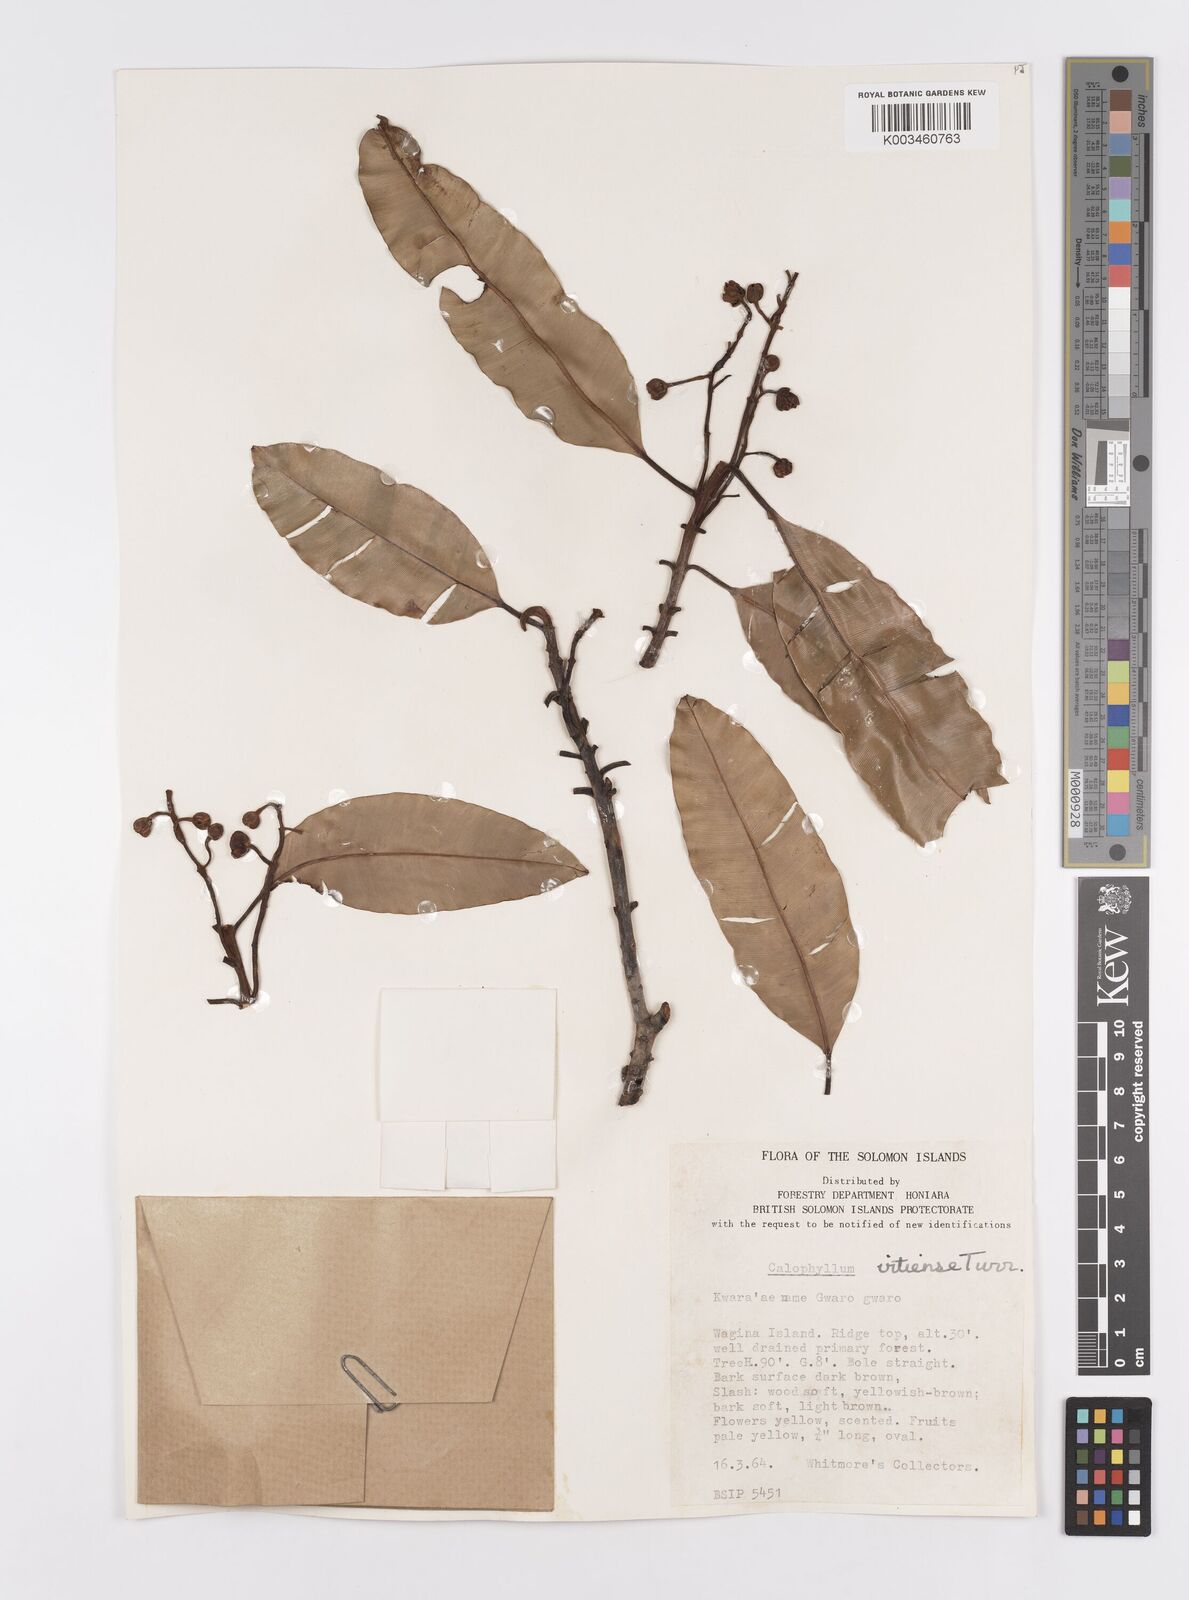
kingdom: Plantae
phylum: Tracheophyta
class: Magnoliopsida
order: Malpighiales
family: Calophyllaceae
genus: Calophyllum
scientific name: Calophyllum vitiense
